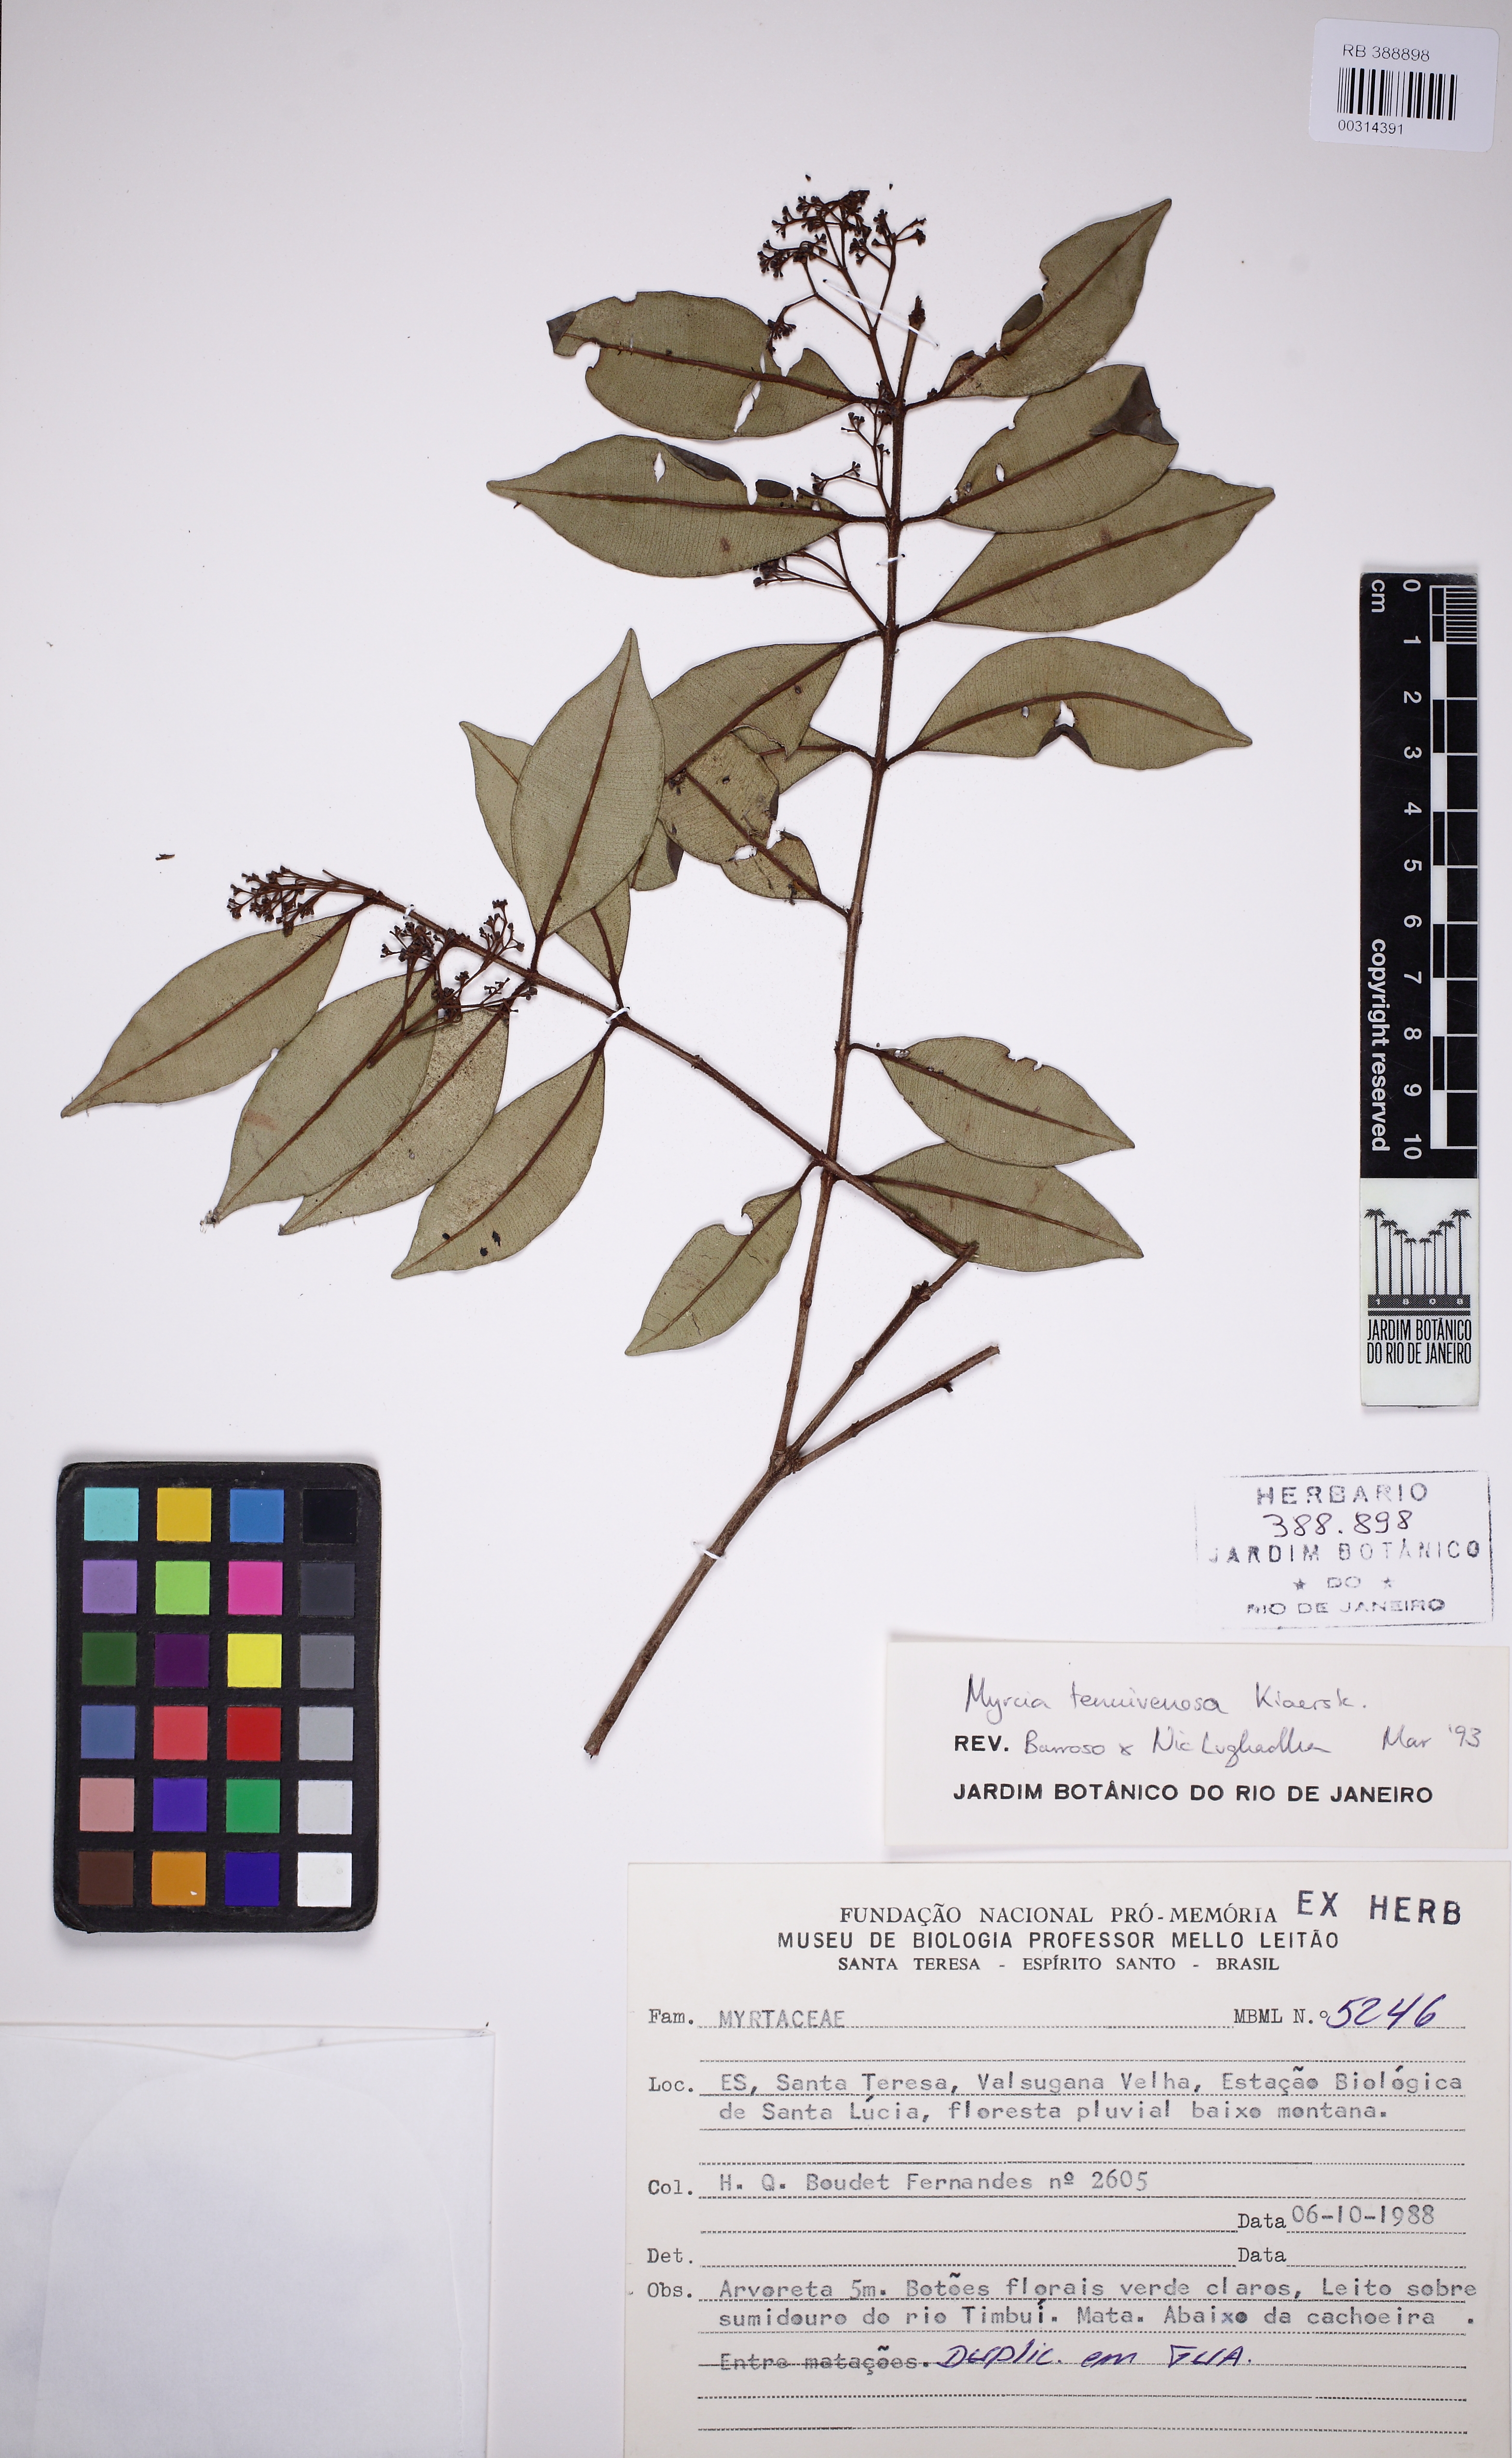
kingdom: Plantae
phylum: Tracheophyta
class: Magnoliopsida
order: Myrtales
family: Myrtaceae
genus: Myrcia
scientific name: Myrcia tenuivenosa
